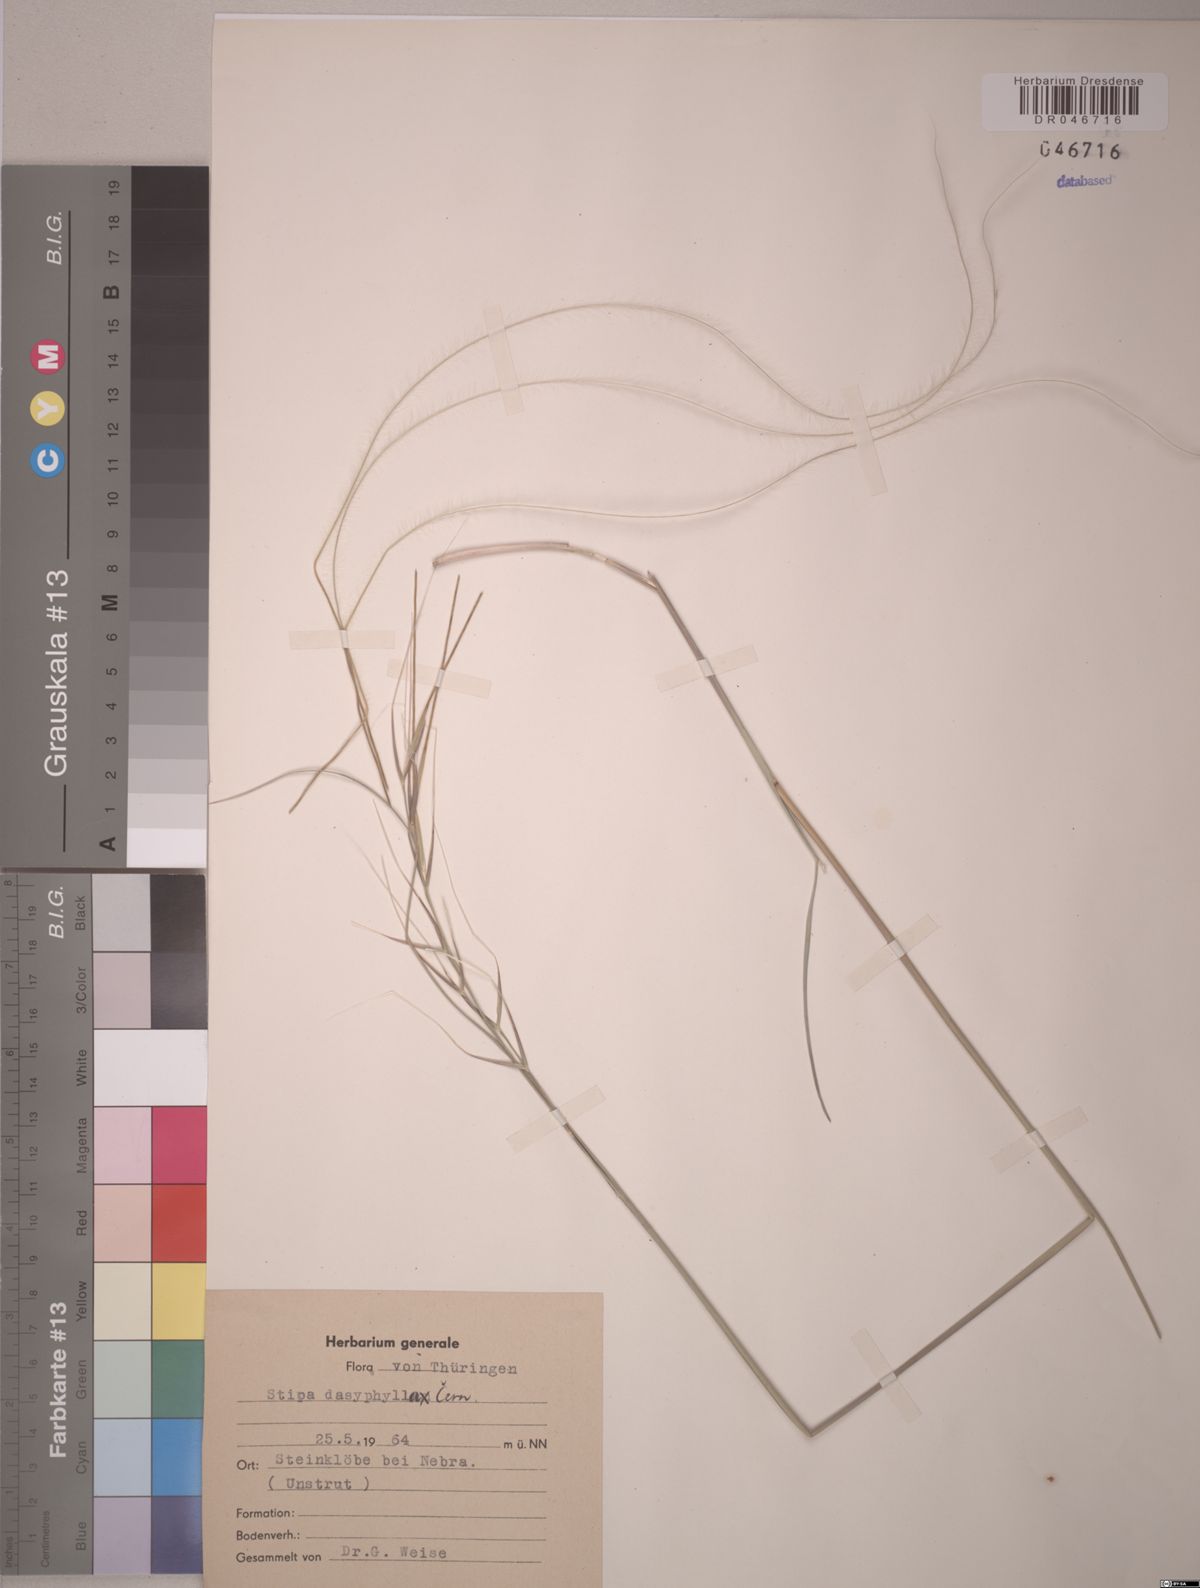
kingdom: Plantae
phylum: Tracheophyta
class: Liliopsida
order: Poales
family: Poaceae
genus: Stipa
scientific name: Stipa dasyphylla
